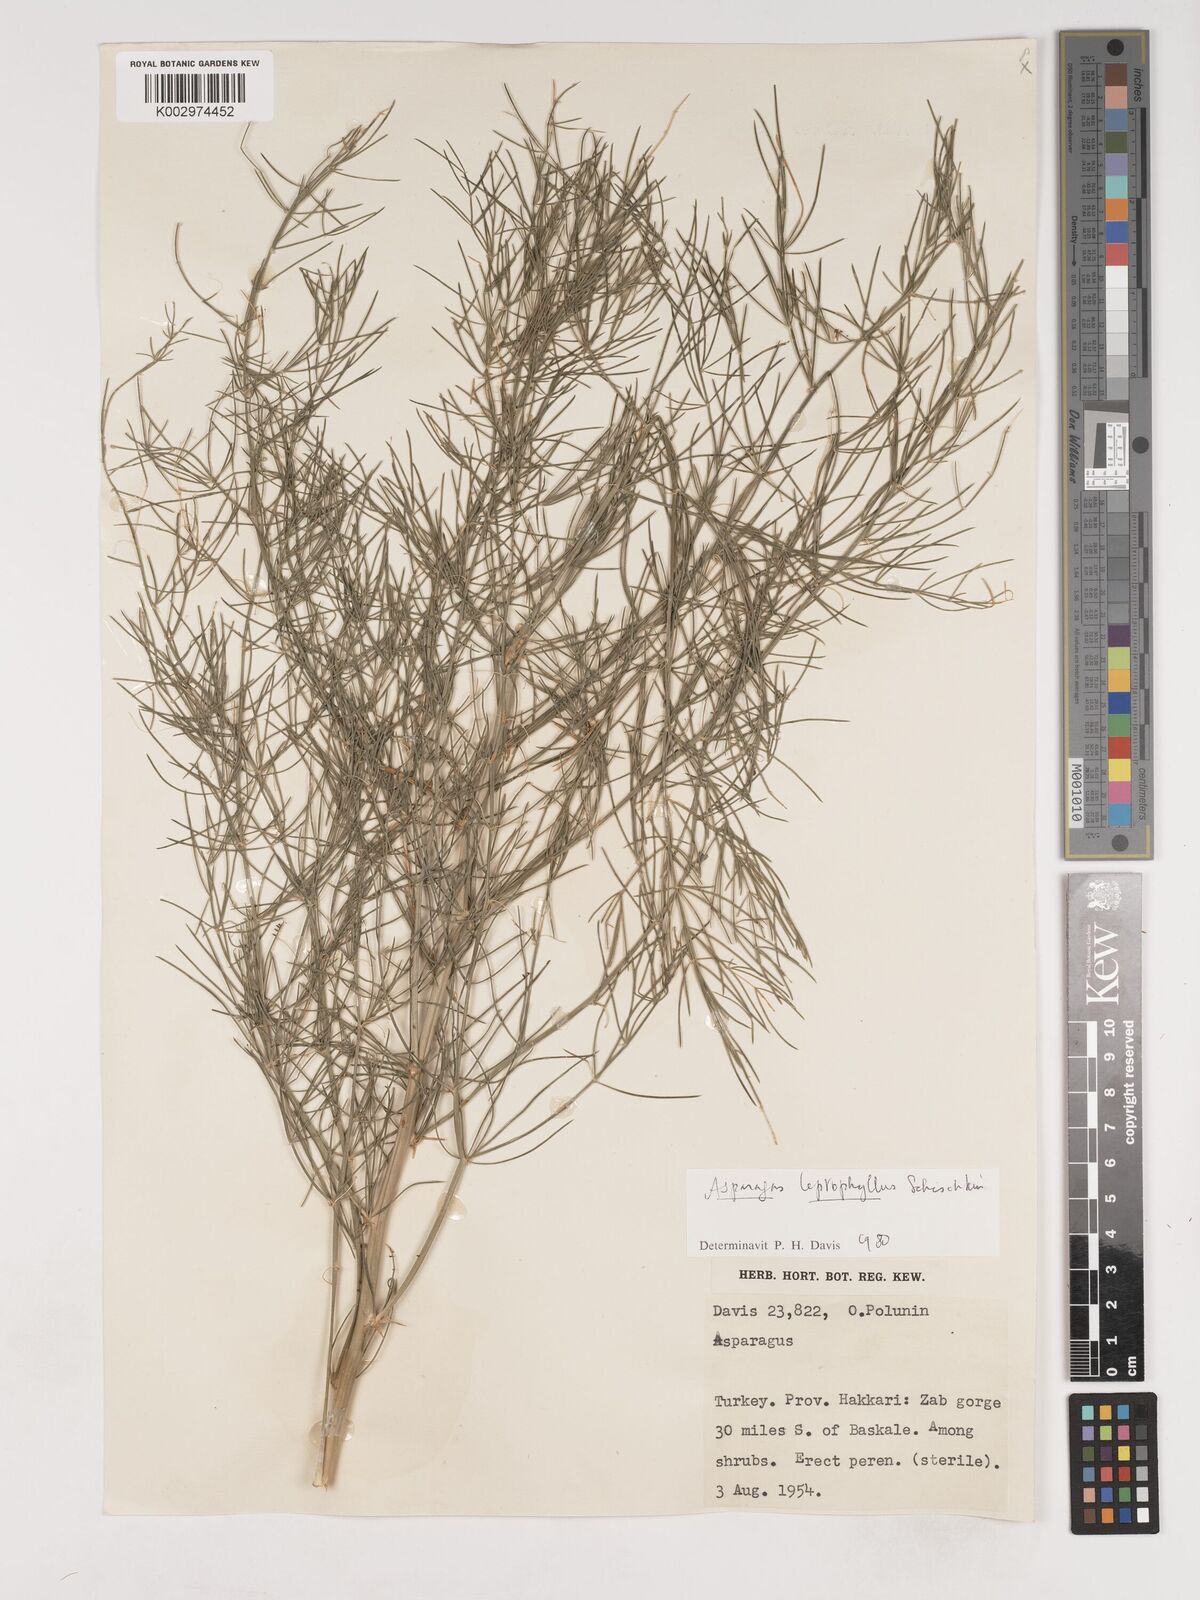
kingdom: Plantae
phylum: Tracheophyta
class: Liliopsida
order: Asparagales
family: Asparagaceae
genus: Asparagus
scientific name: Asparagus persicus
